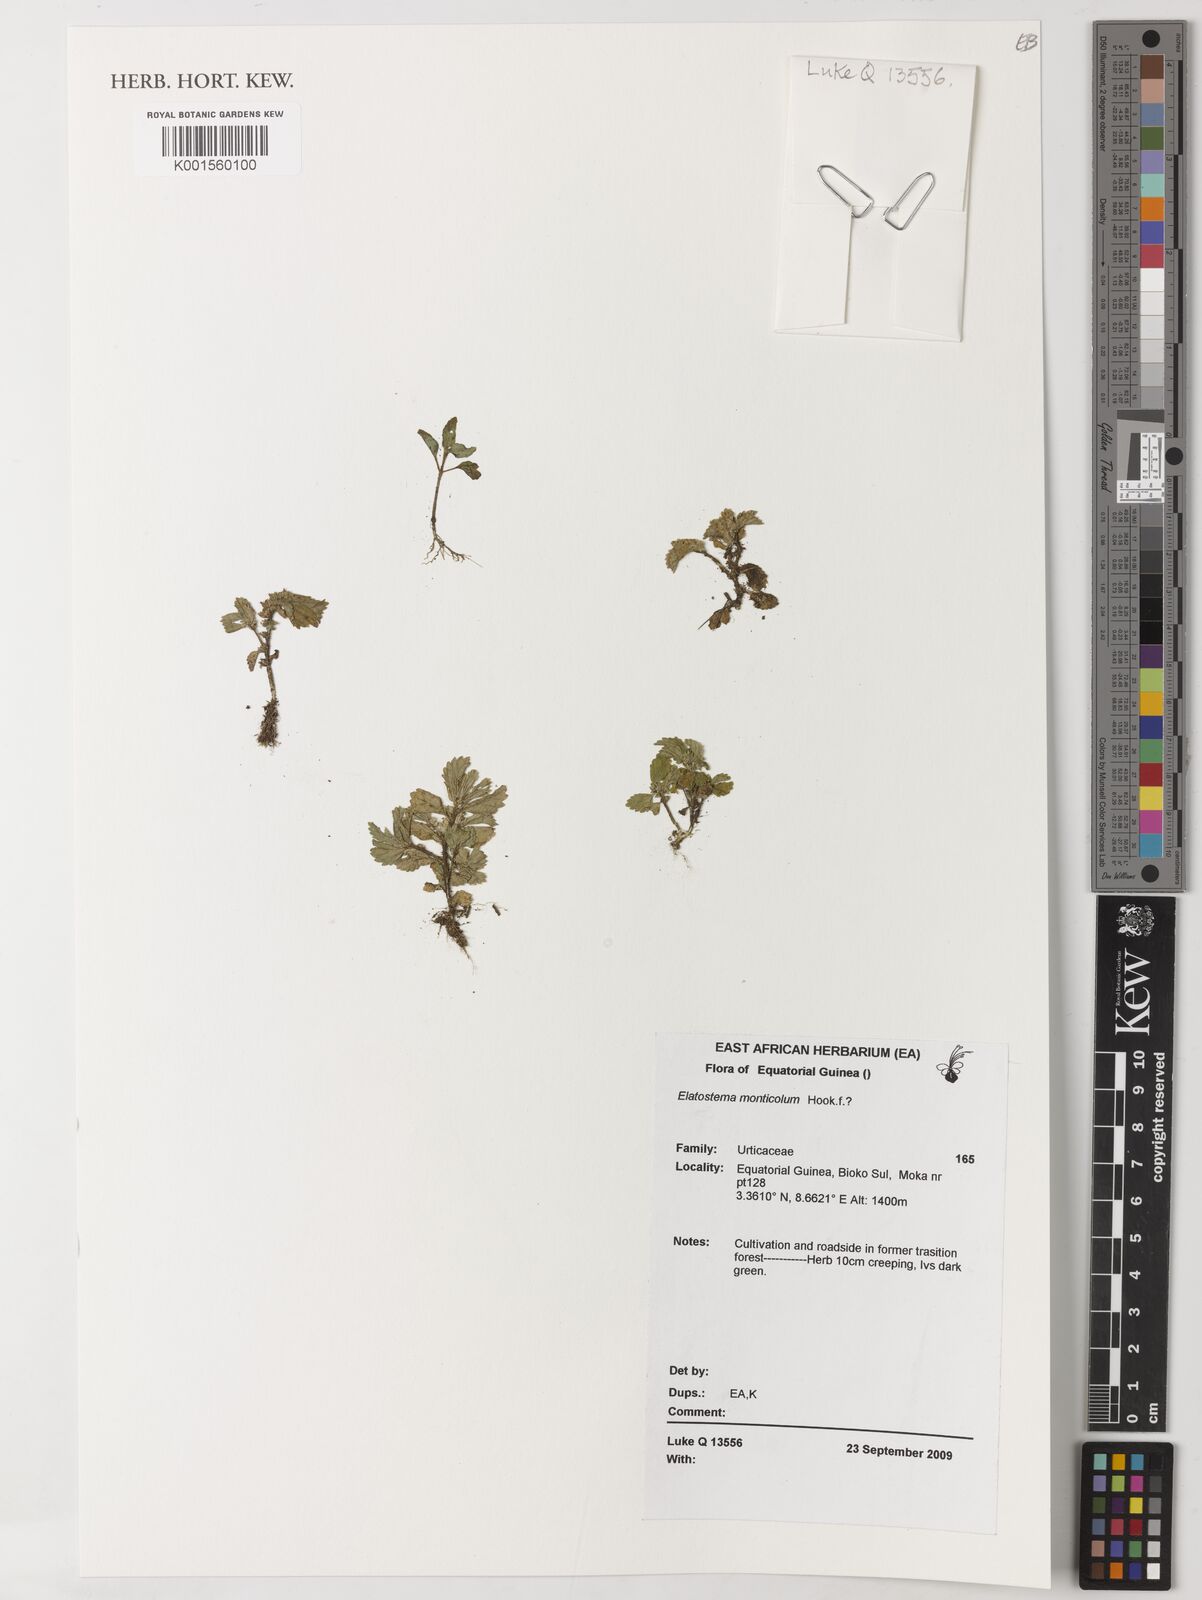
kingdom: Plantae
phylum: Tracheophyta
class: Magnoliopsida
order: Rosales
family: Urticaceae
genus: Elatostema
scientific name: Elatostema monticola
